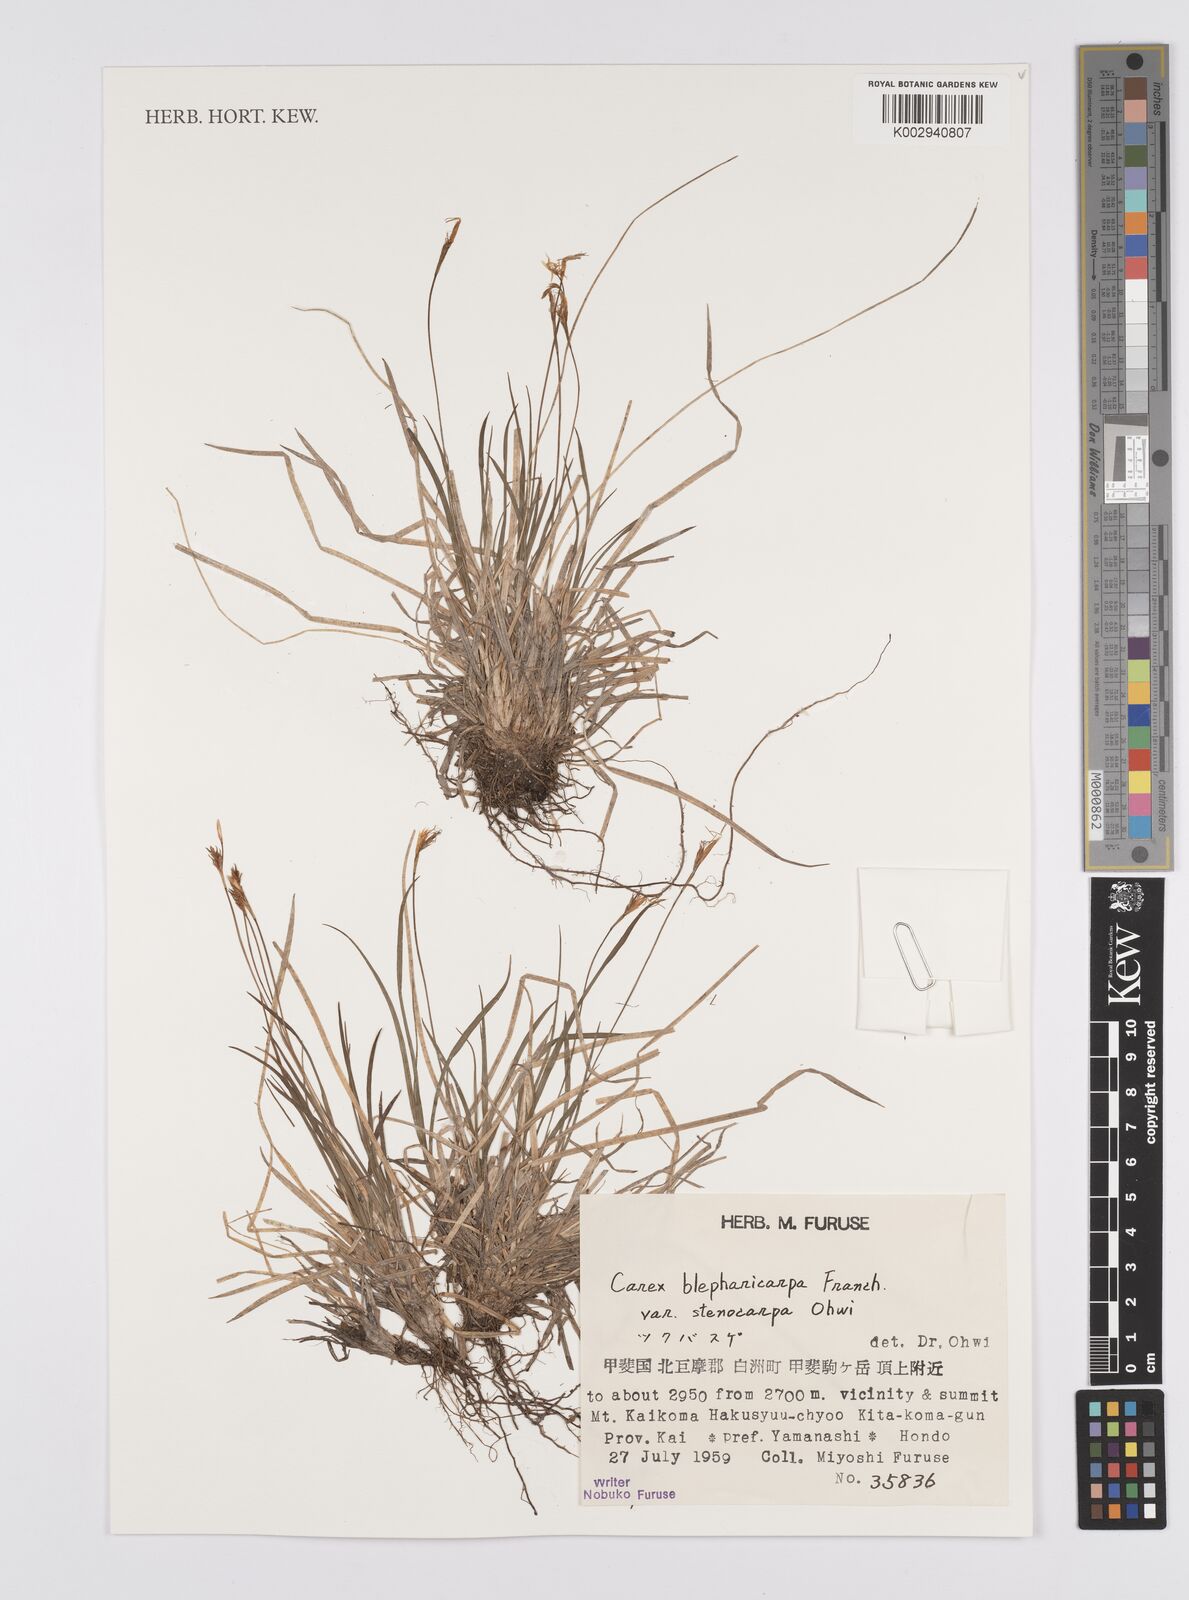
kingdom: Plantae
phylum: Tracheophyta
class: Liliopsida
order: Poales
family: Cyperaceae
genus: Carex
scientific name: Carex blepharicarpa
